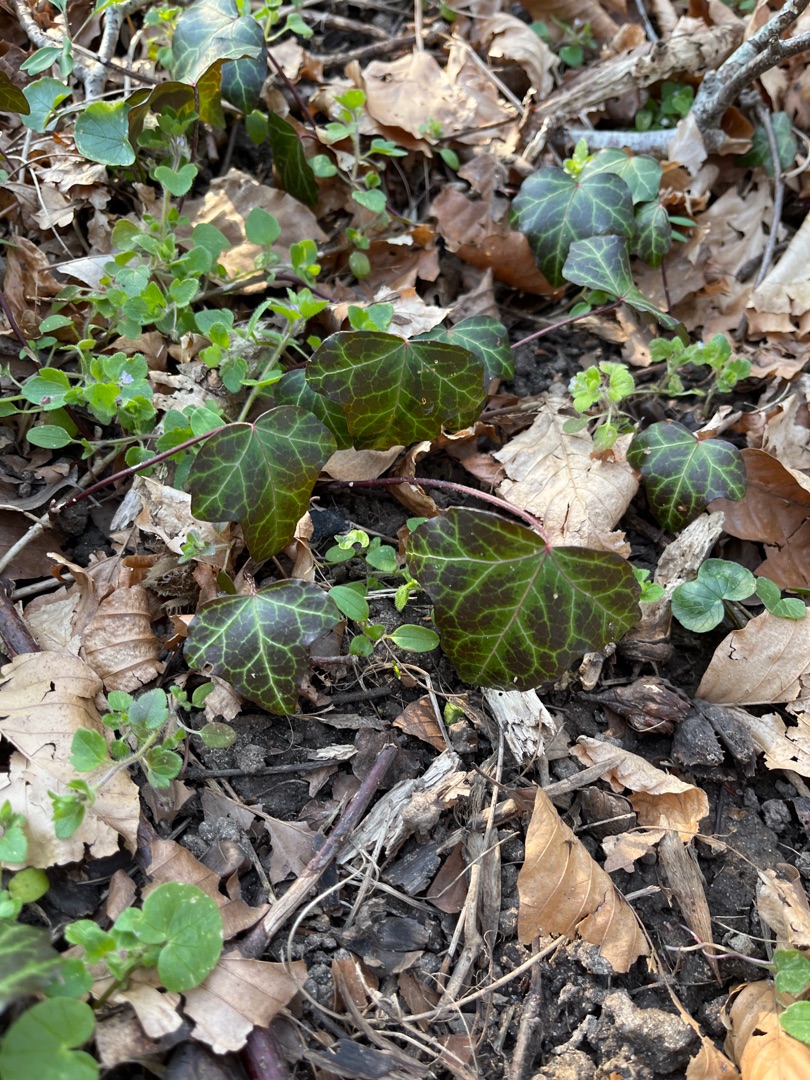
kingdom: Plantae
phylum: Tracheophyta
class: Magnoliopsida
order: Apiales
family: Araliaceae
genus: Hedera
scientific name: Hedera helix
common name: Vedbend
